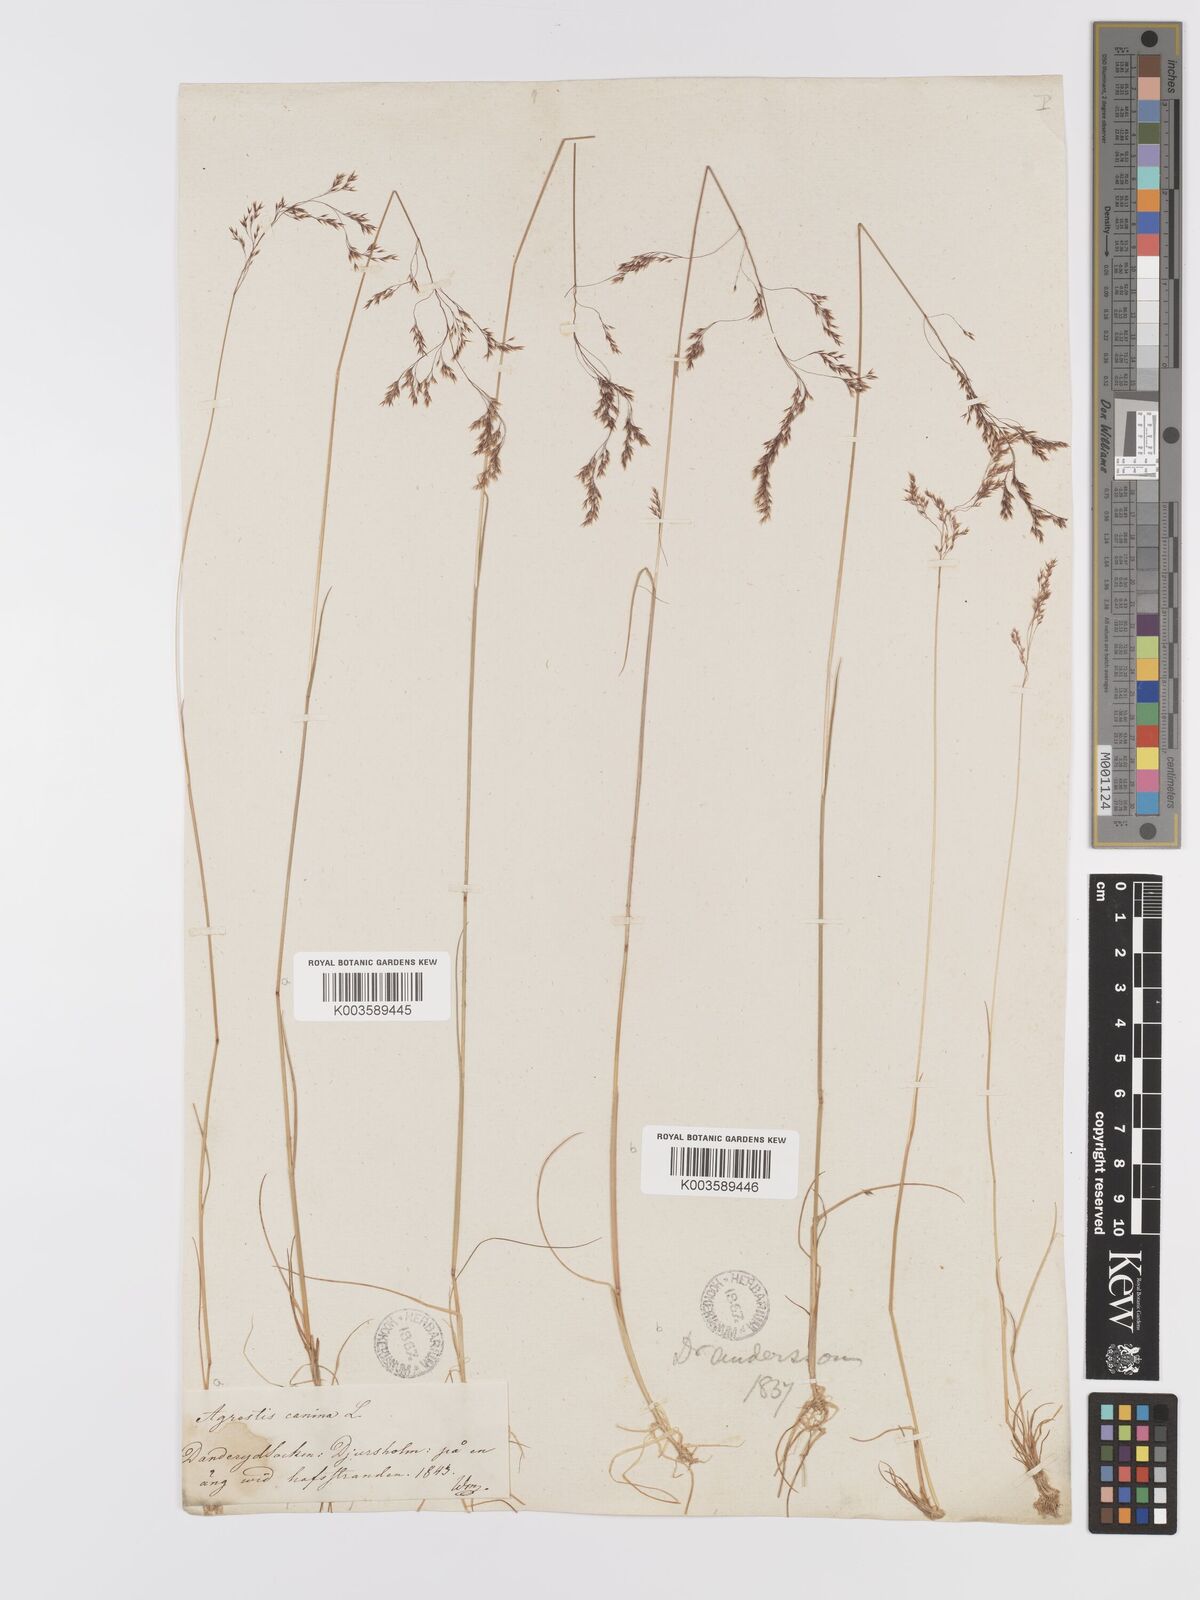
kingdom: Plantae
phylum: Tracheophyta
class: Liliopsida
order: Poales
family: Poaceae
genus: Agrostis
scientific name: Agrostis canina
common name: Velvet bent
